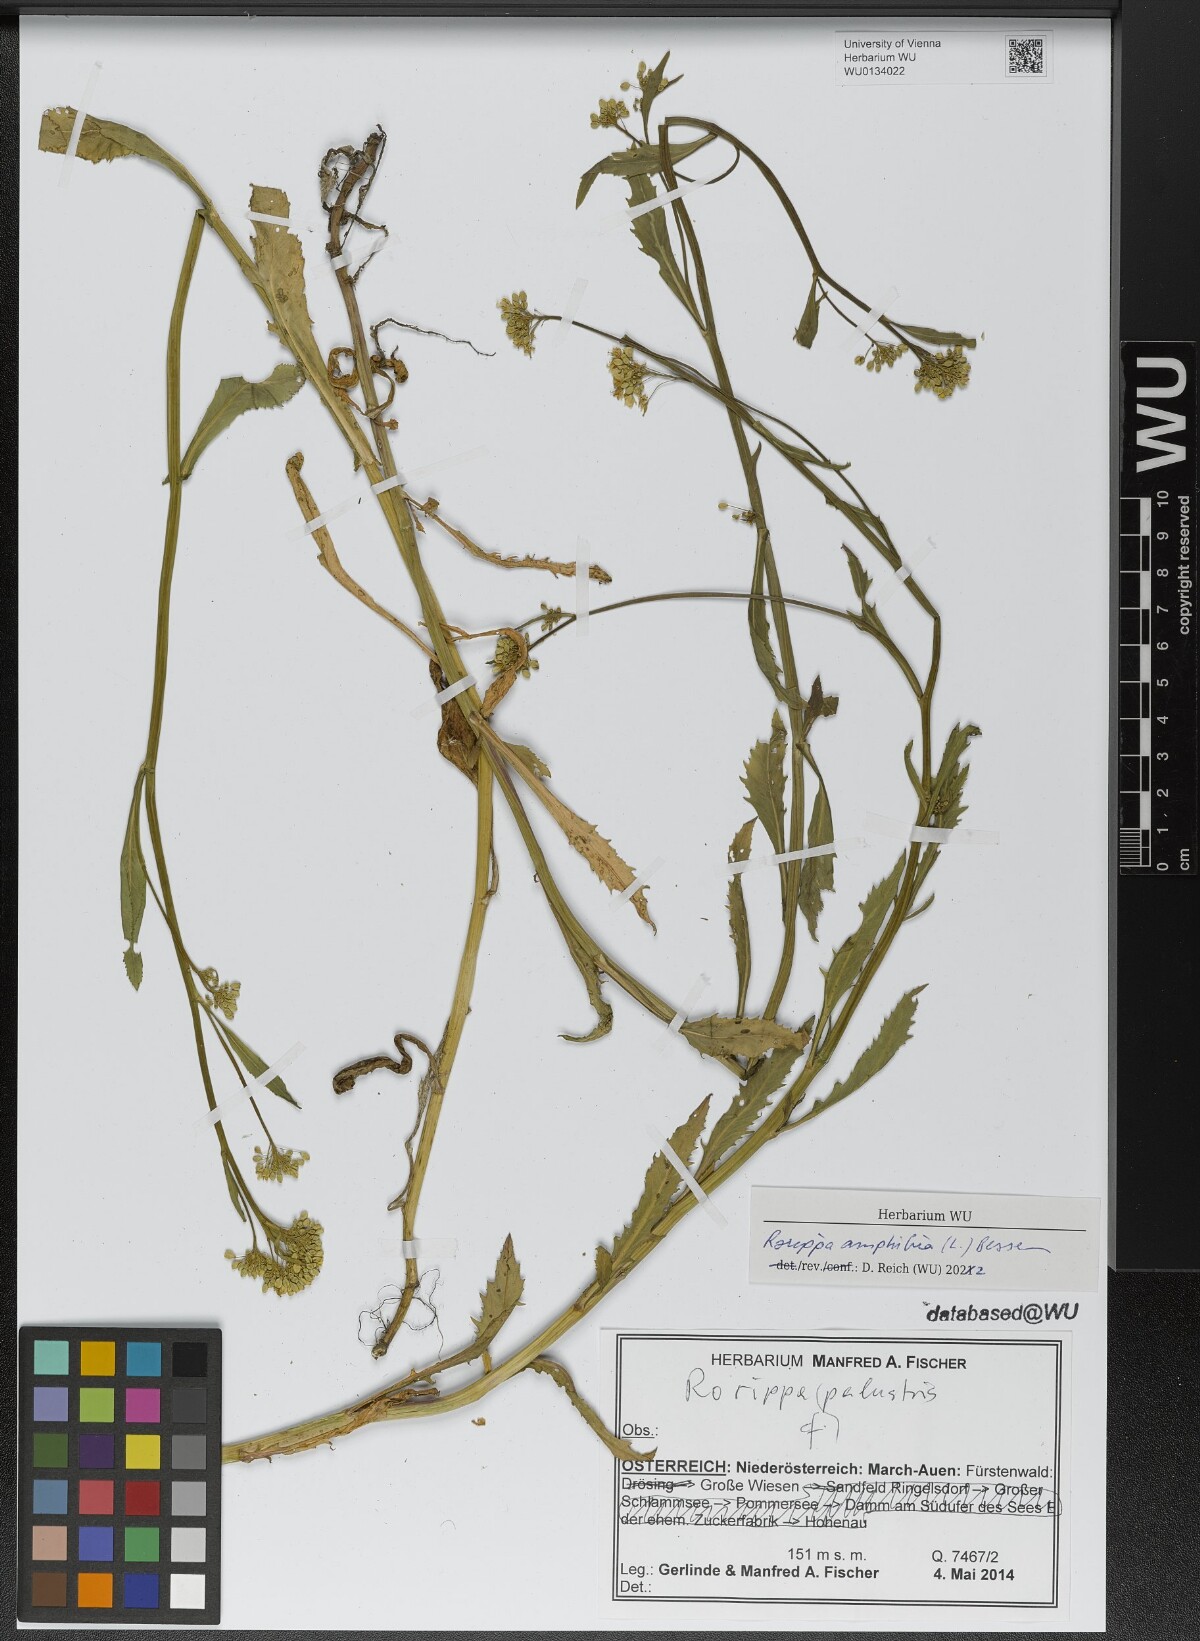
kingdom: Plantae
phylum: Tracheophyta
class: Magnoliopsida
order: Brassicales
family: Brassicaceae
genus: Rorippa
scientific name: Rorippa amphibia
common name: Great yellow-cress
